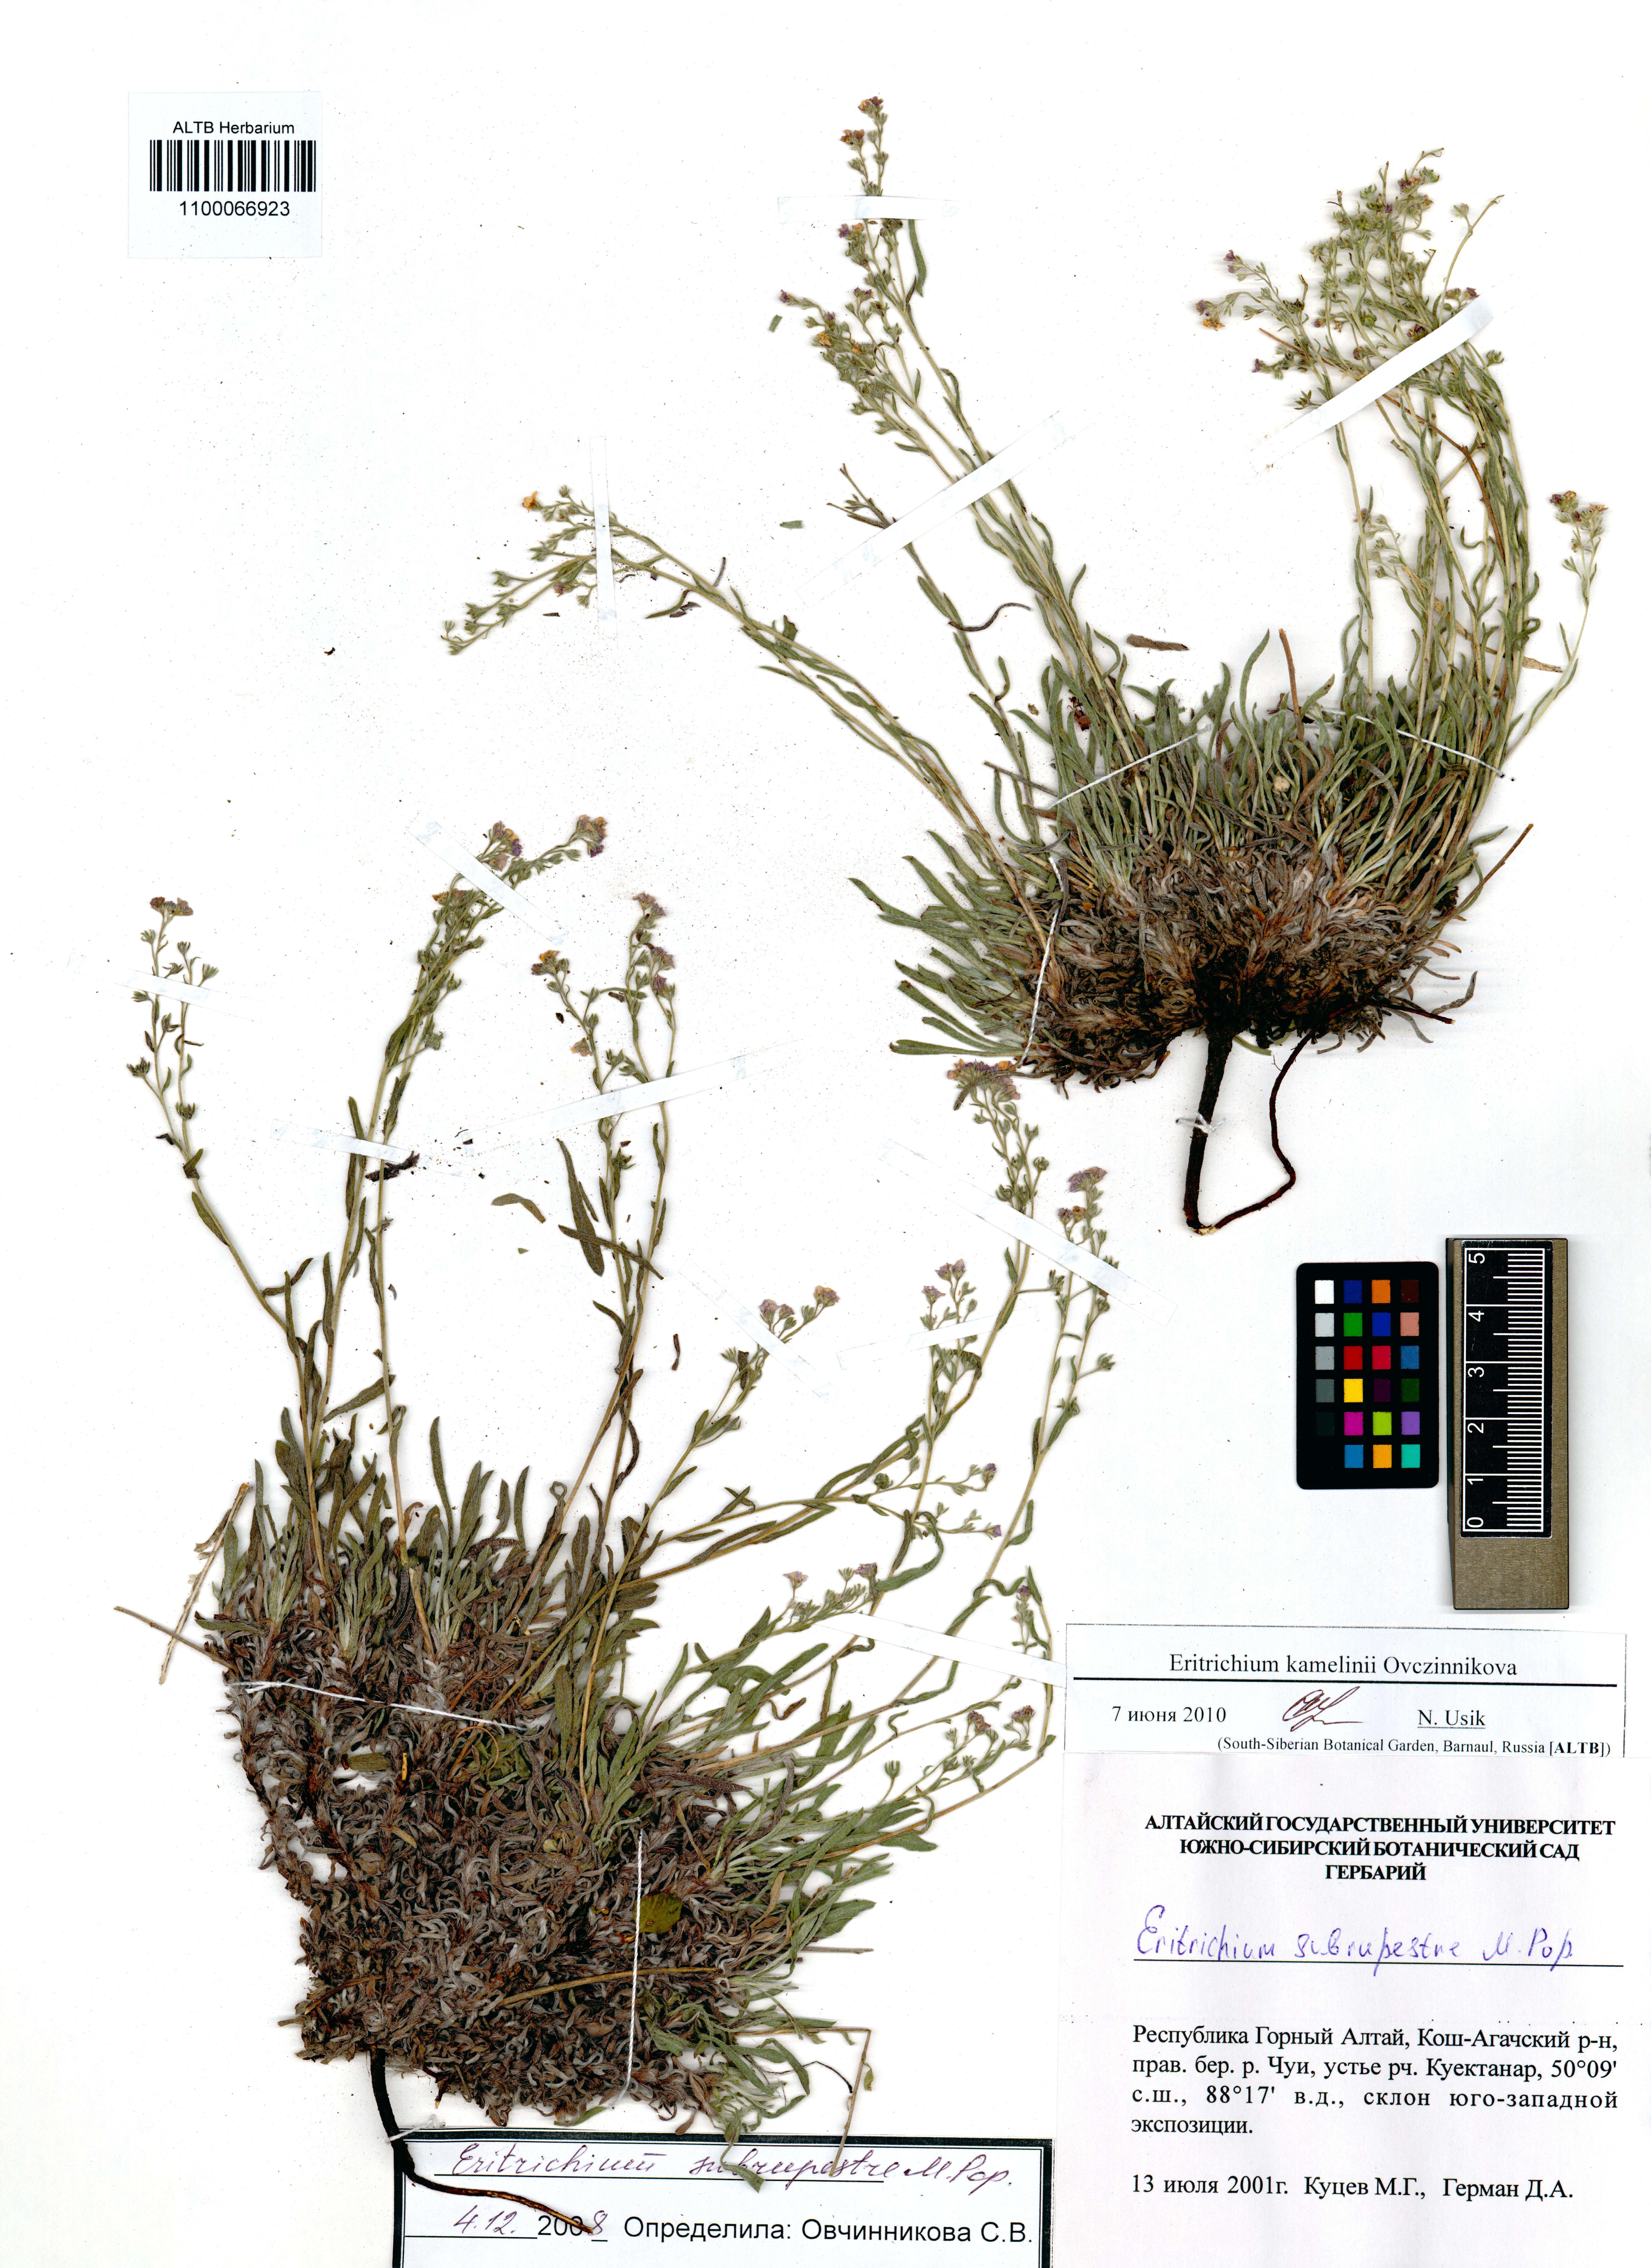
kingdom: Plantae
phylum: Tracheophyta
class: Magnoliopsida
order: Boraginales
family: Boraginaceae
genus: Eritrichium
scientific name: Eritrichium kamelinii
